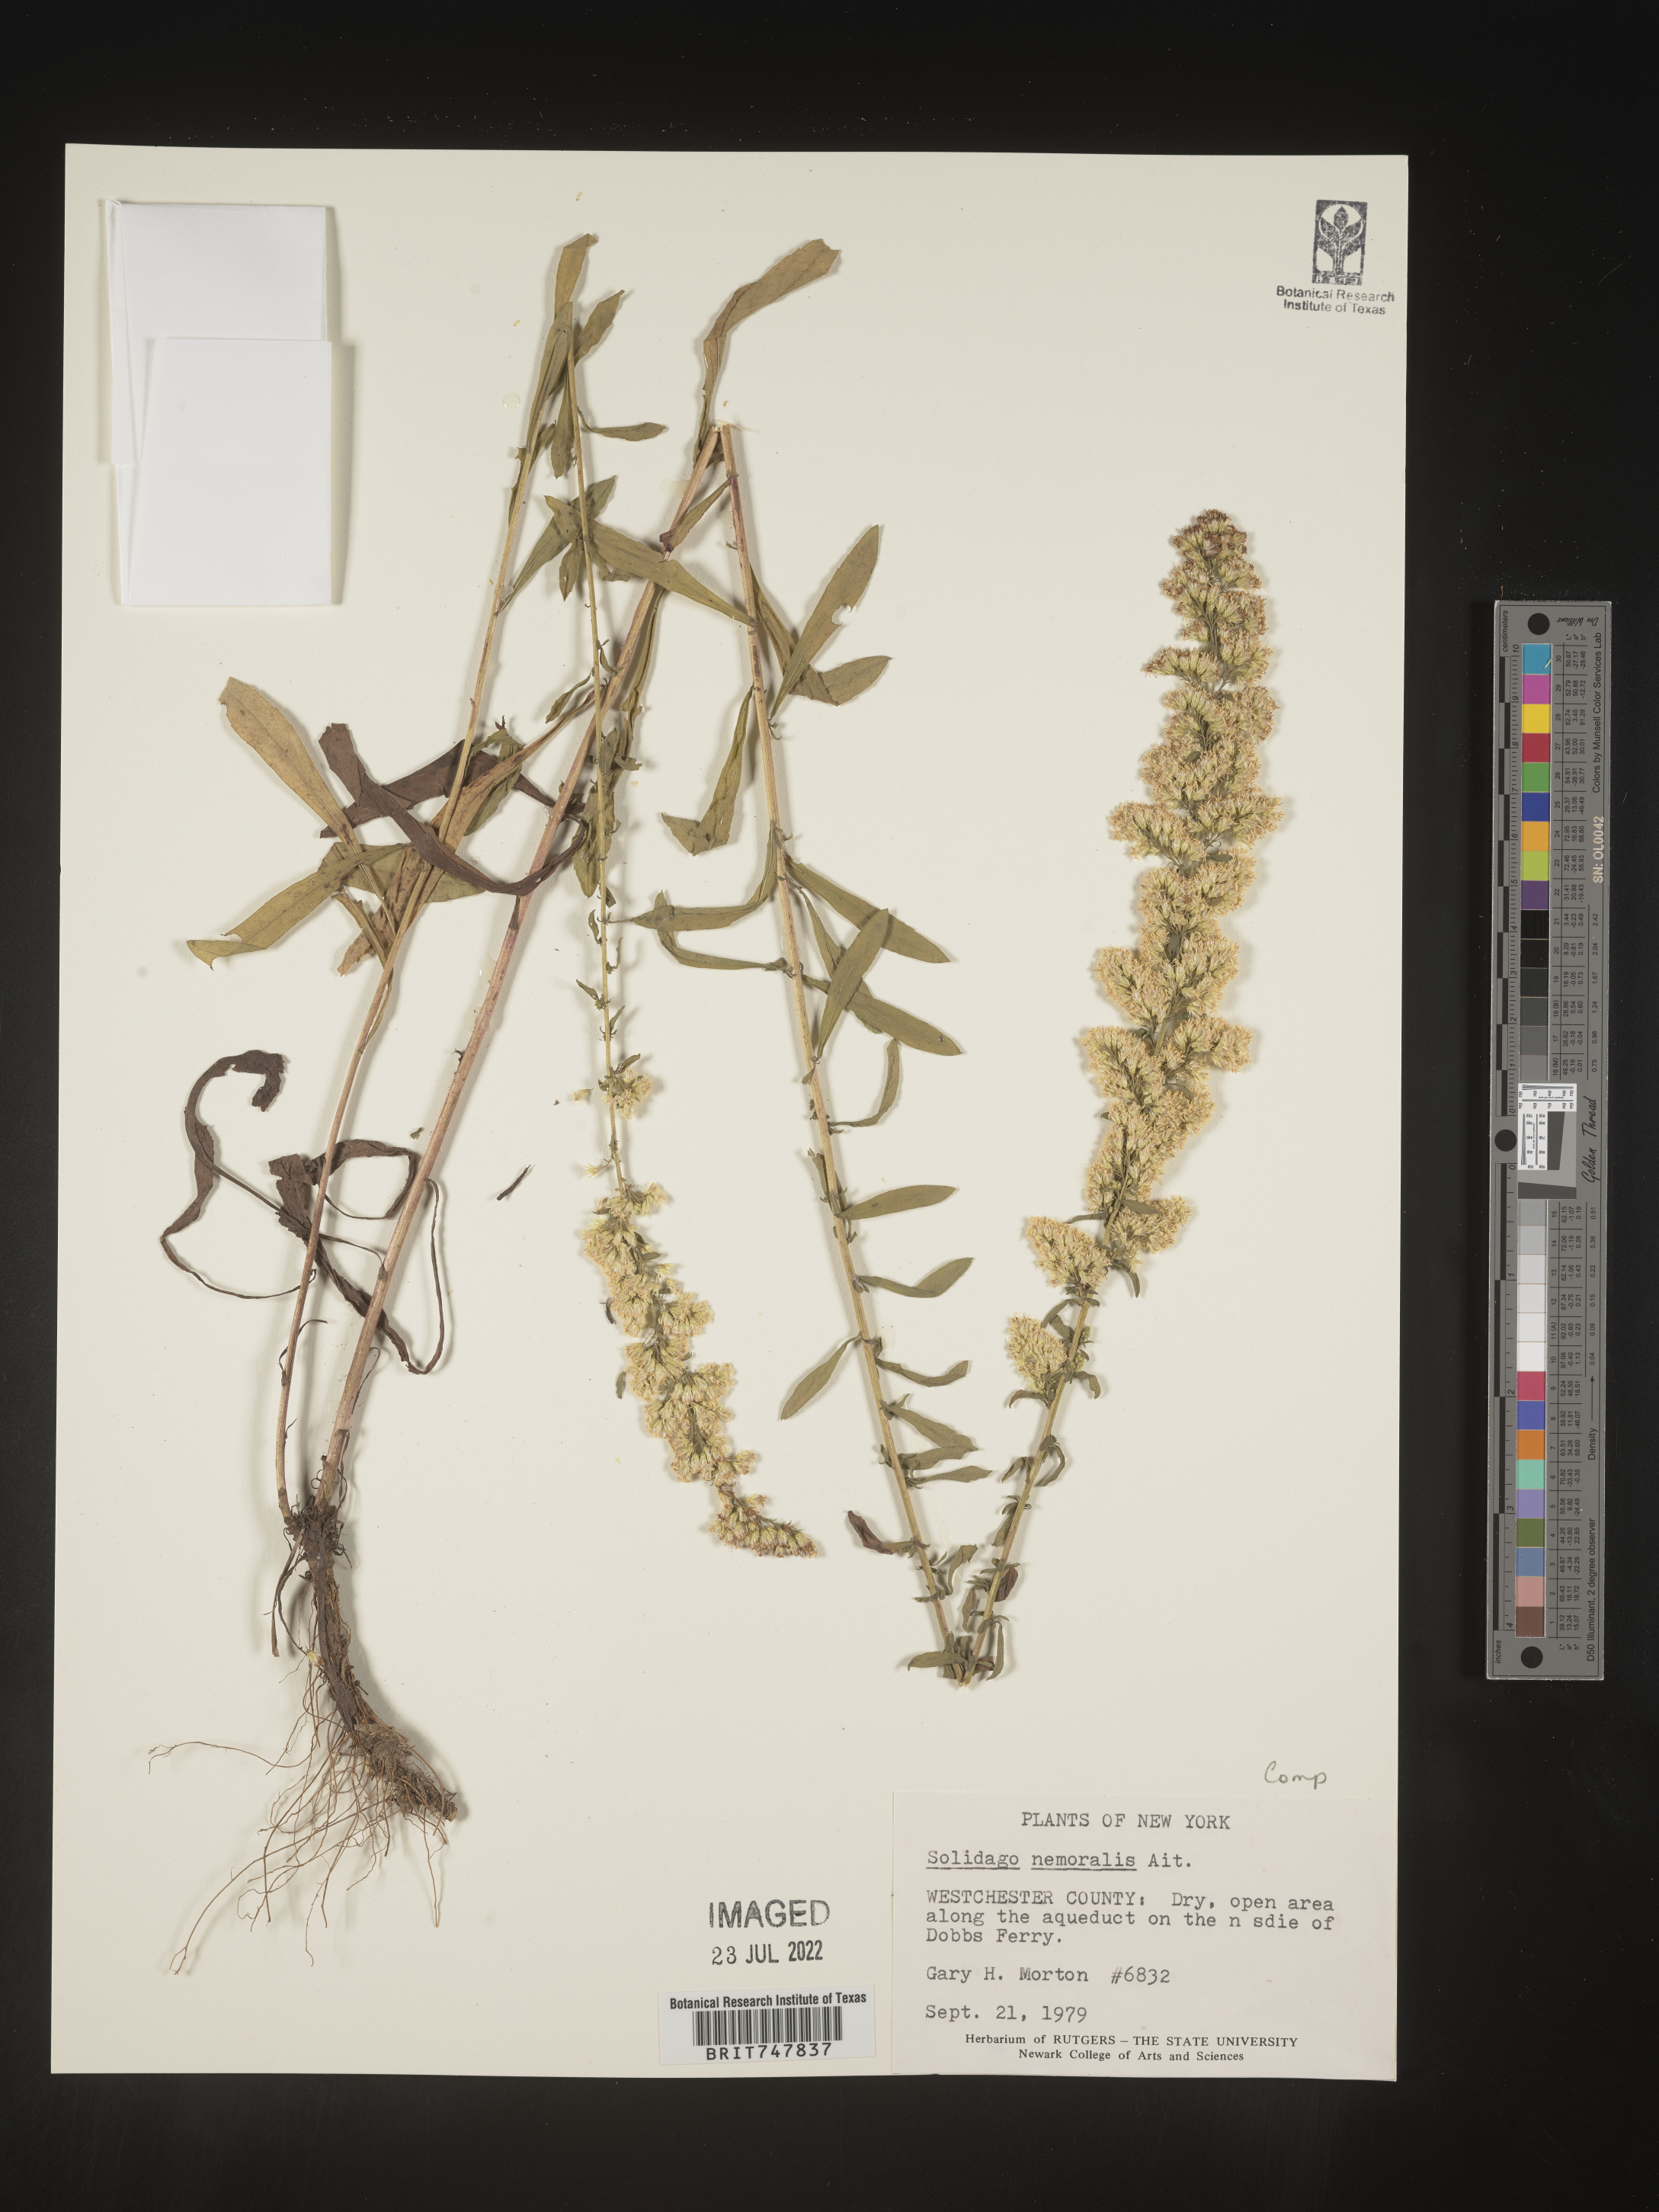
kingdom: Plantae
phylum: Tracheophyta
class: Magnoliopsida
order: Asterales
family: Asteraceae
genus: Solidago
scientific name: Solidago nemoralis
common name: Grey goldenrod
